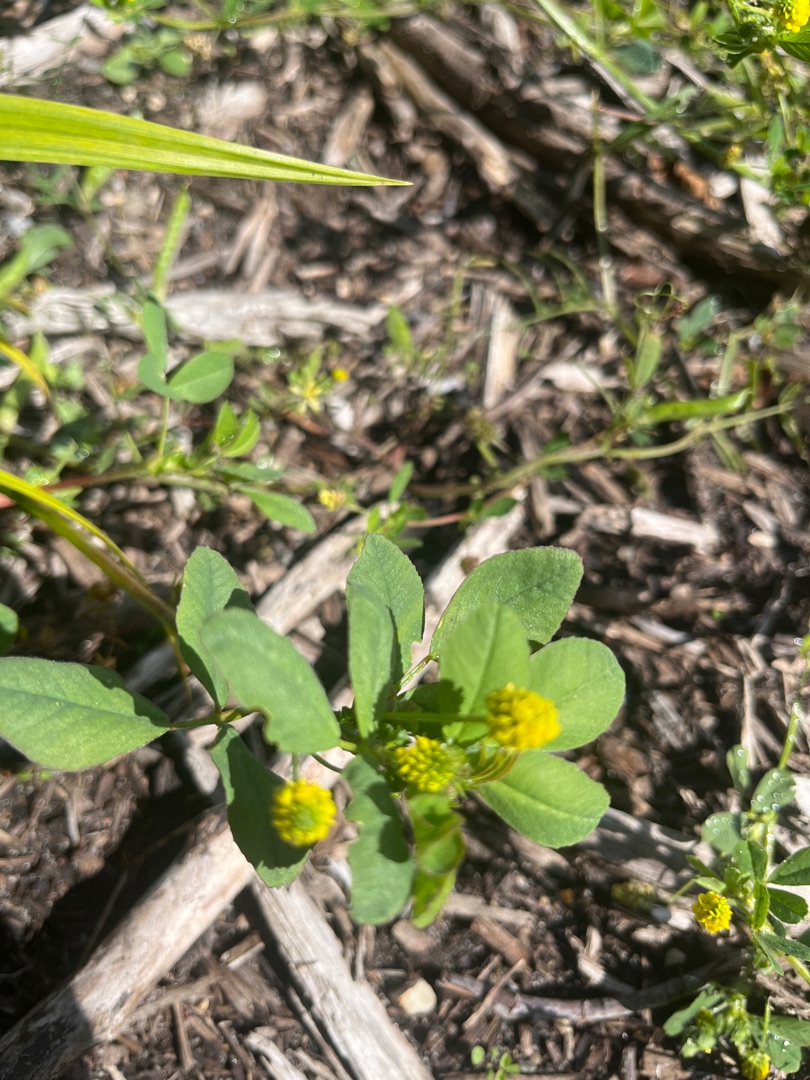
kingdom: Plantae
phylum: Tracheophyta
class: Magnoliopsida
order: Fabales
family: Fabaceae
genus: Medicago
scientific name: Medicago lupulina
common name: Humle-sneglebælg
